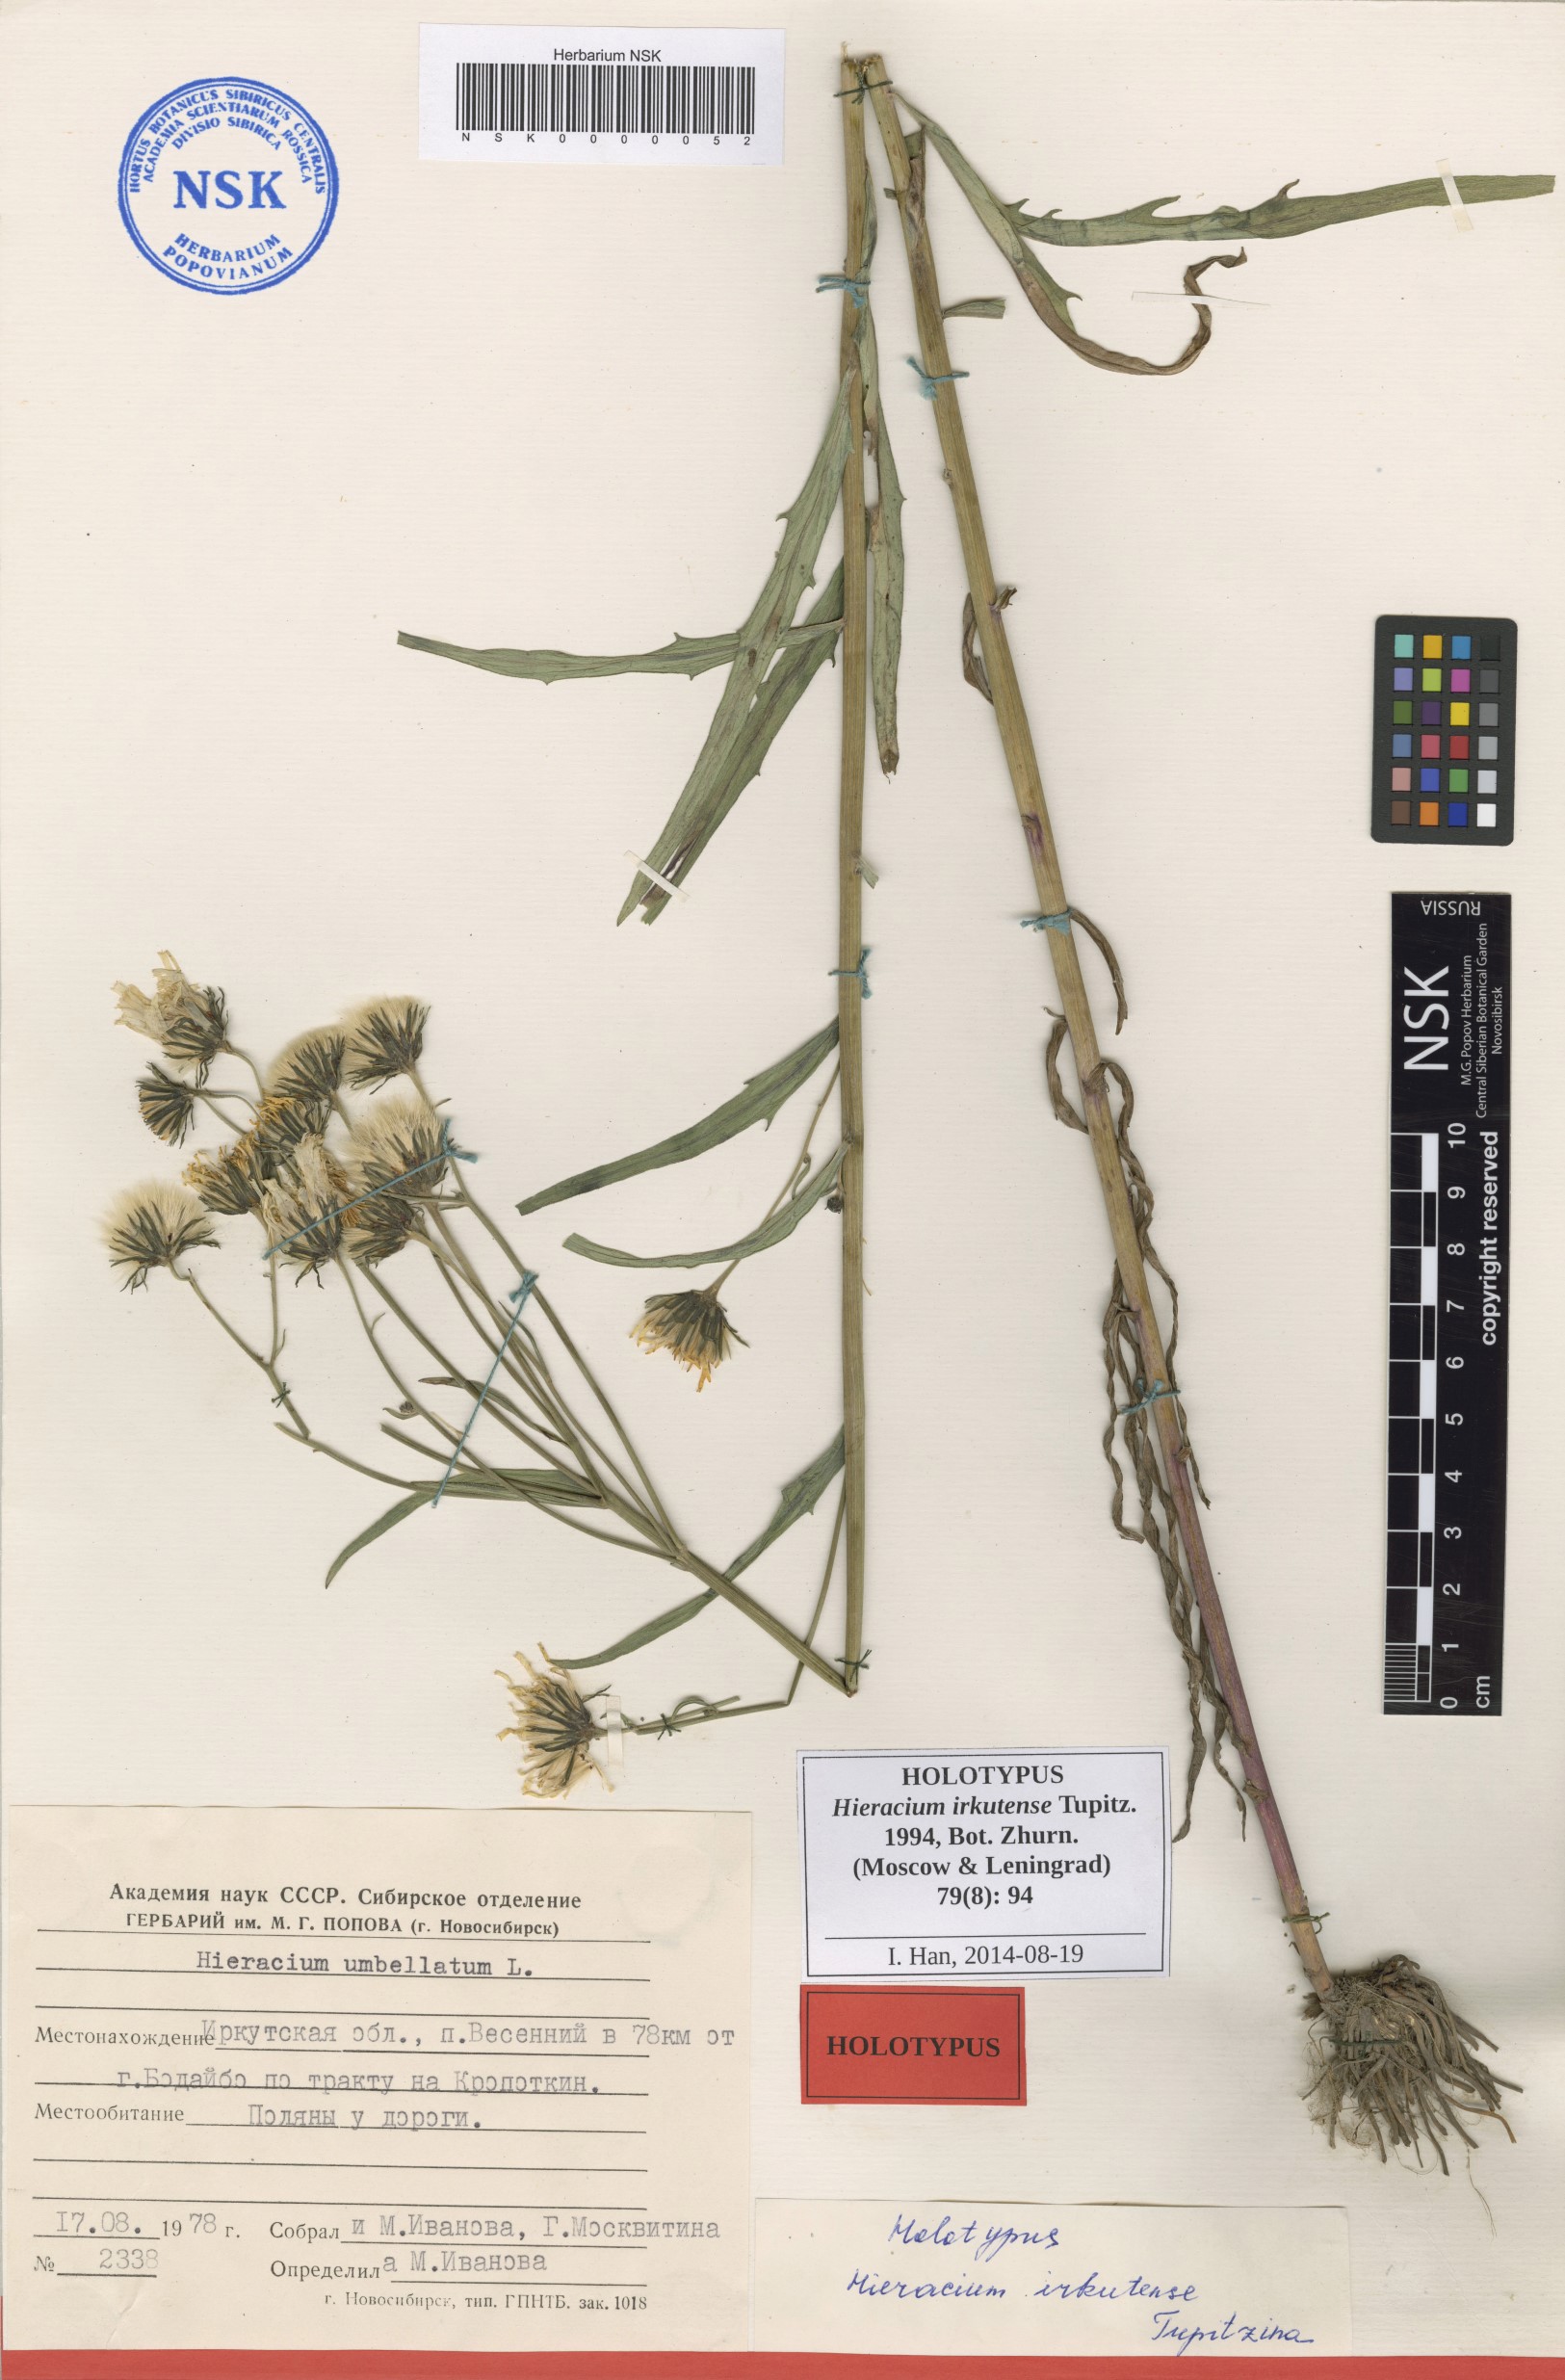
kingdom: Plantae
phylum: Tracheophyta
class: Magnoliopsida
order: Asterales
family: Asteraceae
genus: Hieracium
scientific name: Hieracium irkutense
